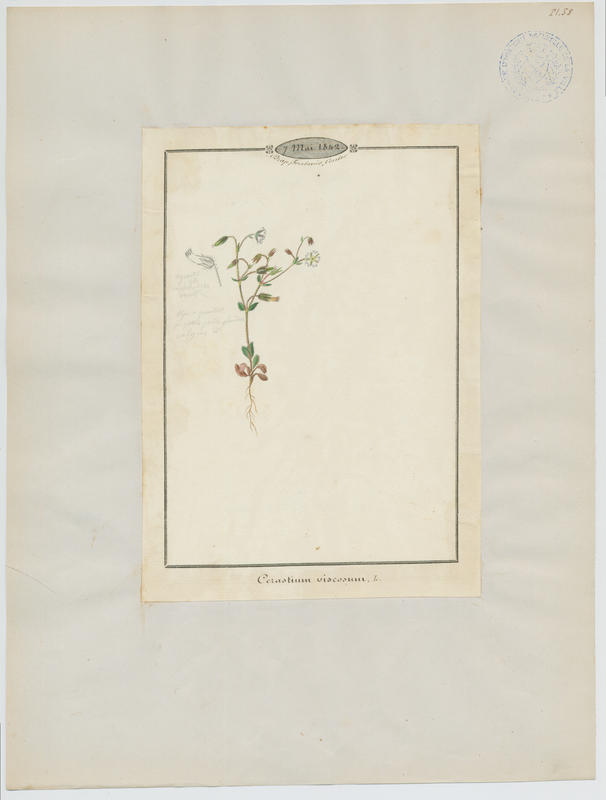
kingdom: Plantae
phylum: Tracheophyta
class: Magnoliopsida
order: Caryophyllales
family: Caryophyllaceae
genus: Cerastium
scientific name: Cerastium glomeratum
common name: Sticky chickweed
